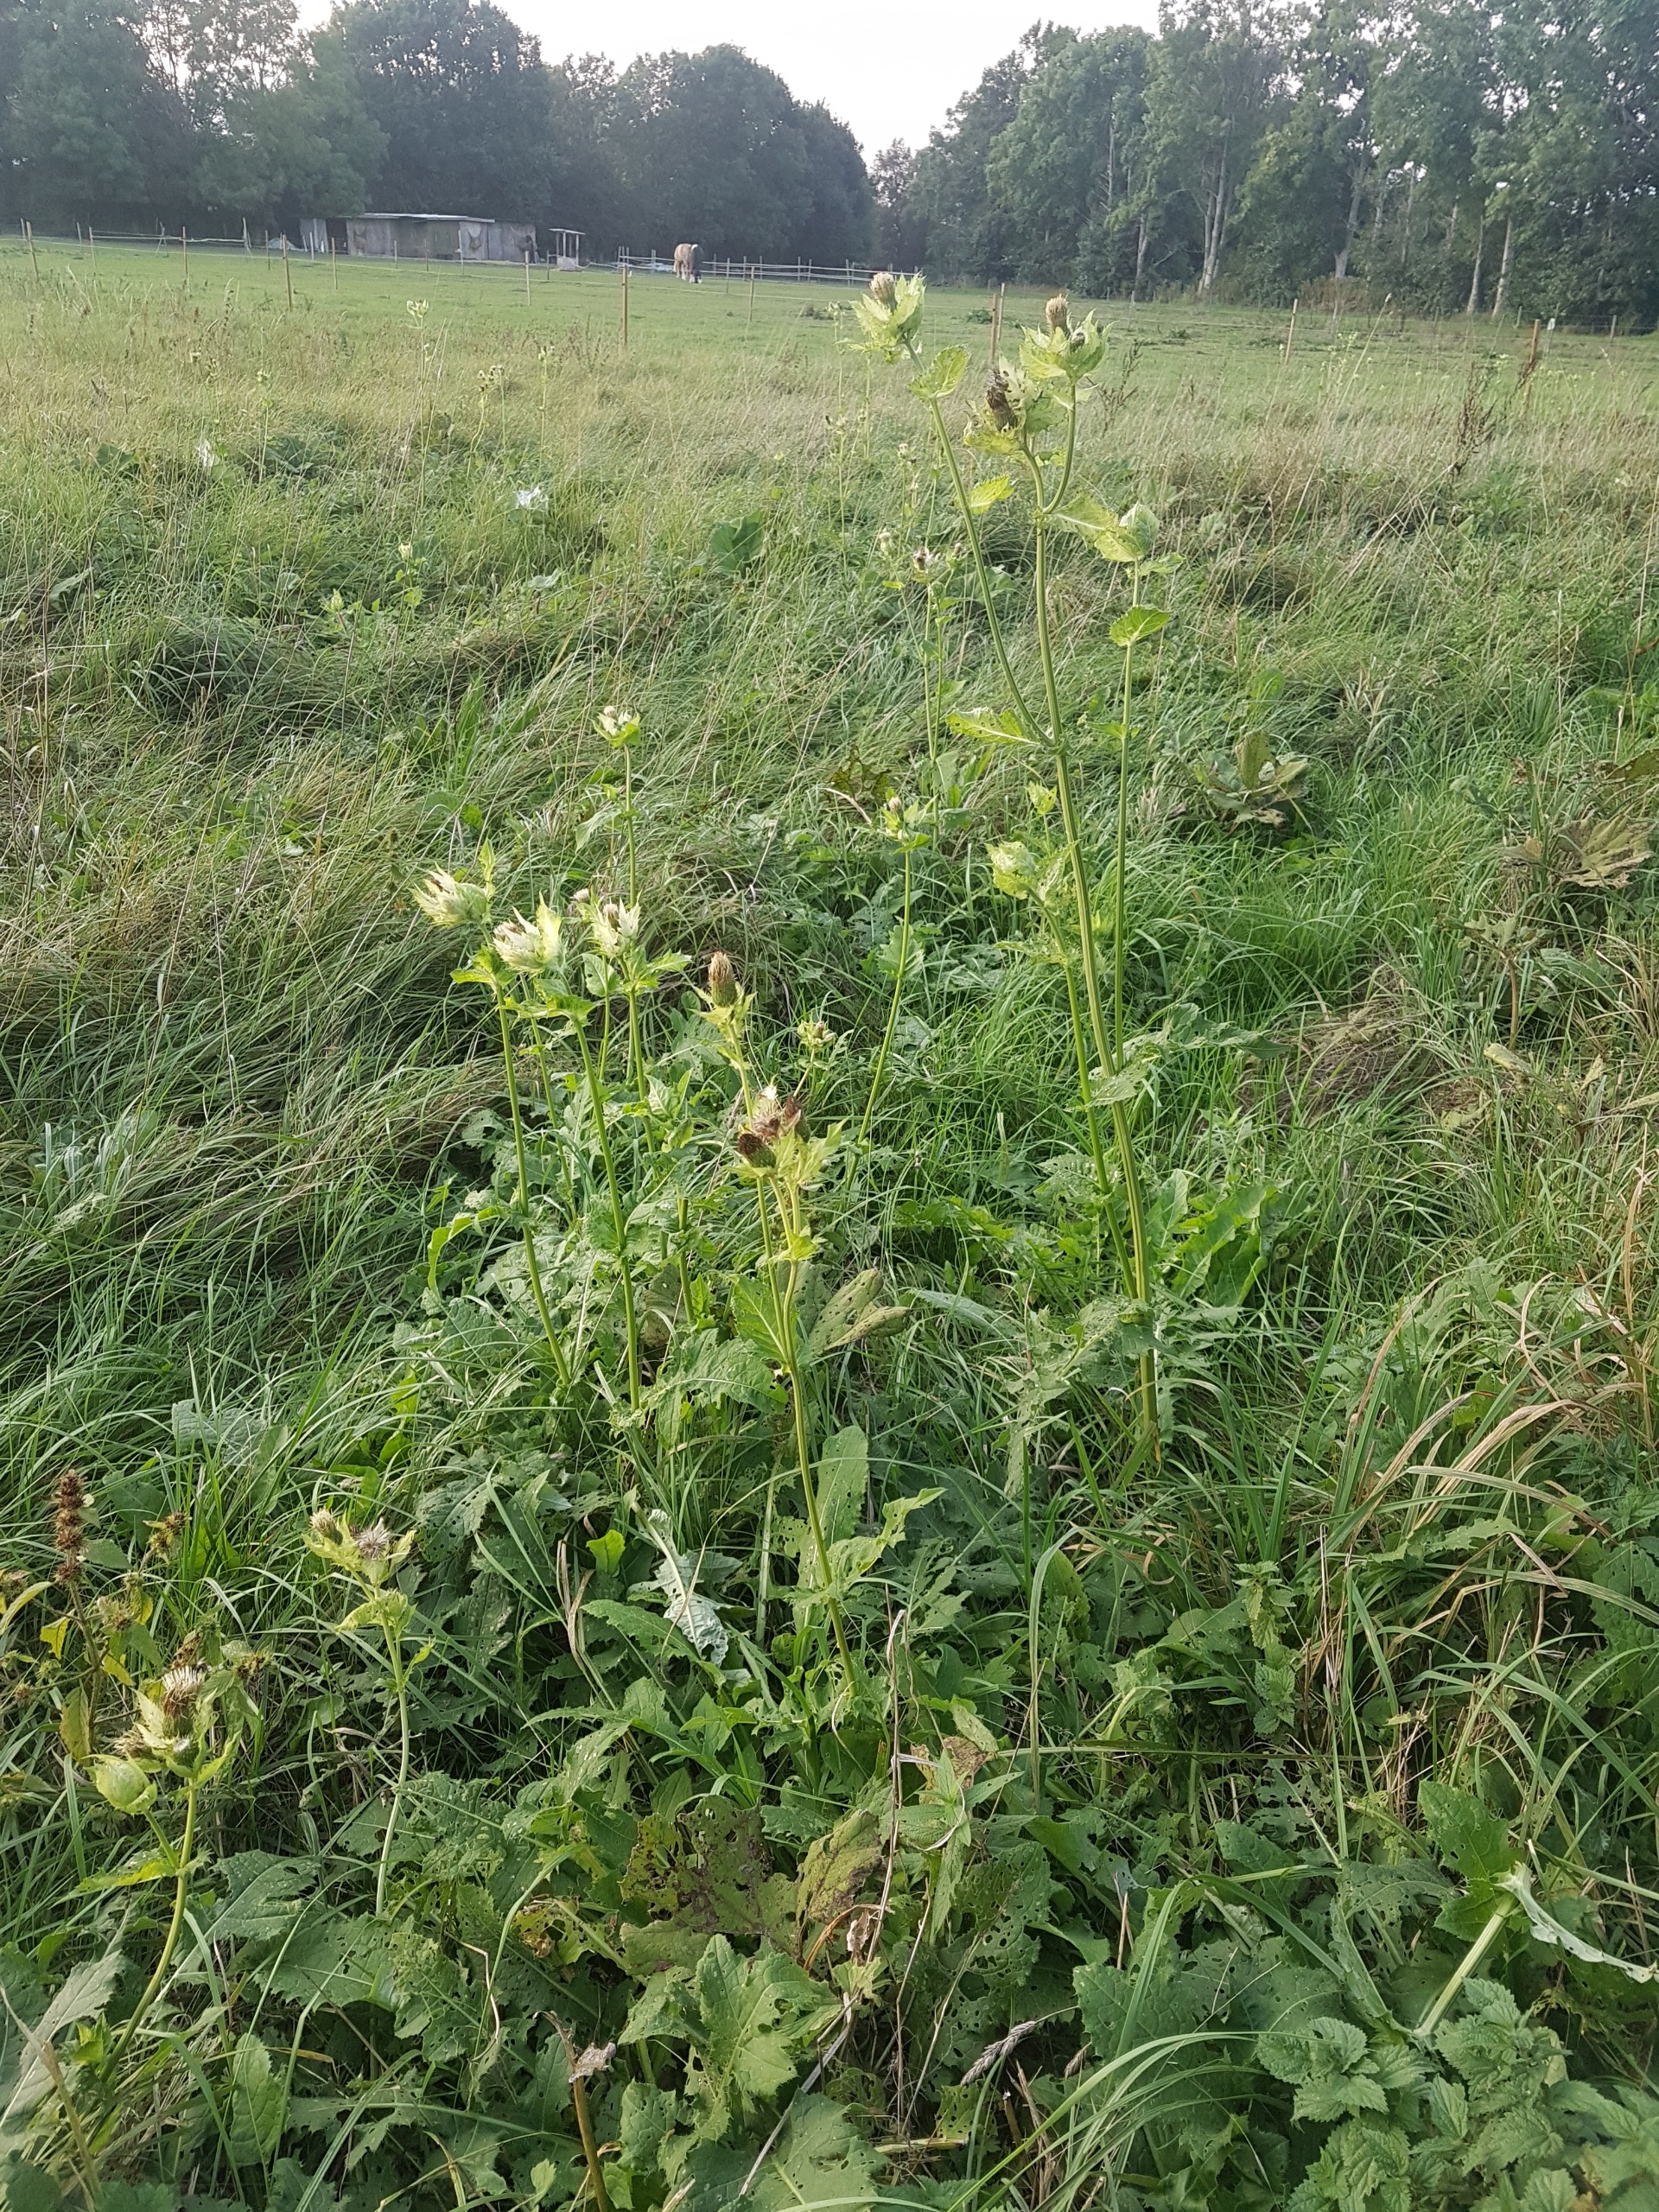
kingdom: Plantae
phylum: Tracheophyta
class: Magnoliopsida
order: Asterales
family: Asteraceae
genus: Cirsium
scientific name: Cirsium oleraceum
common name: Kål-tidsel
